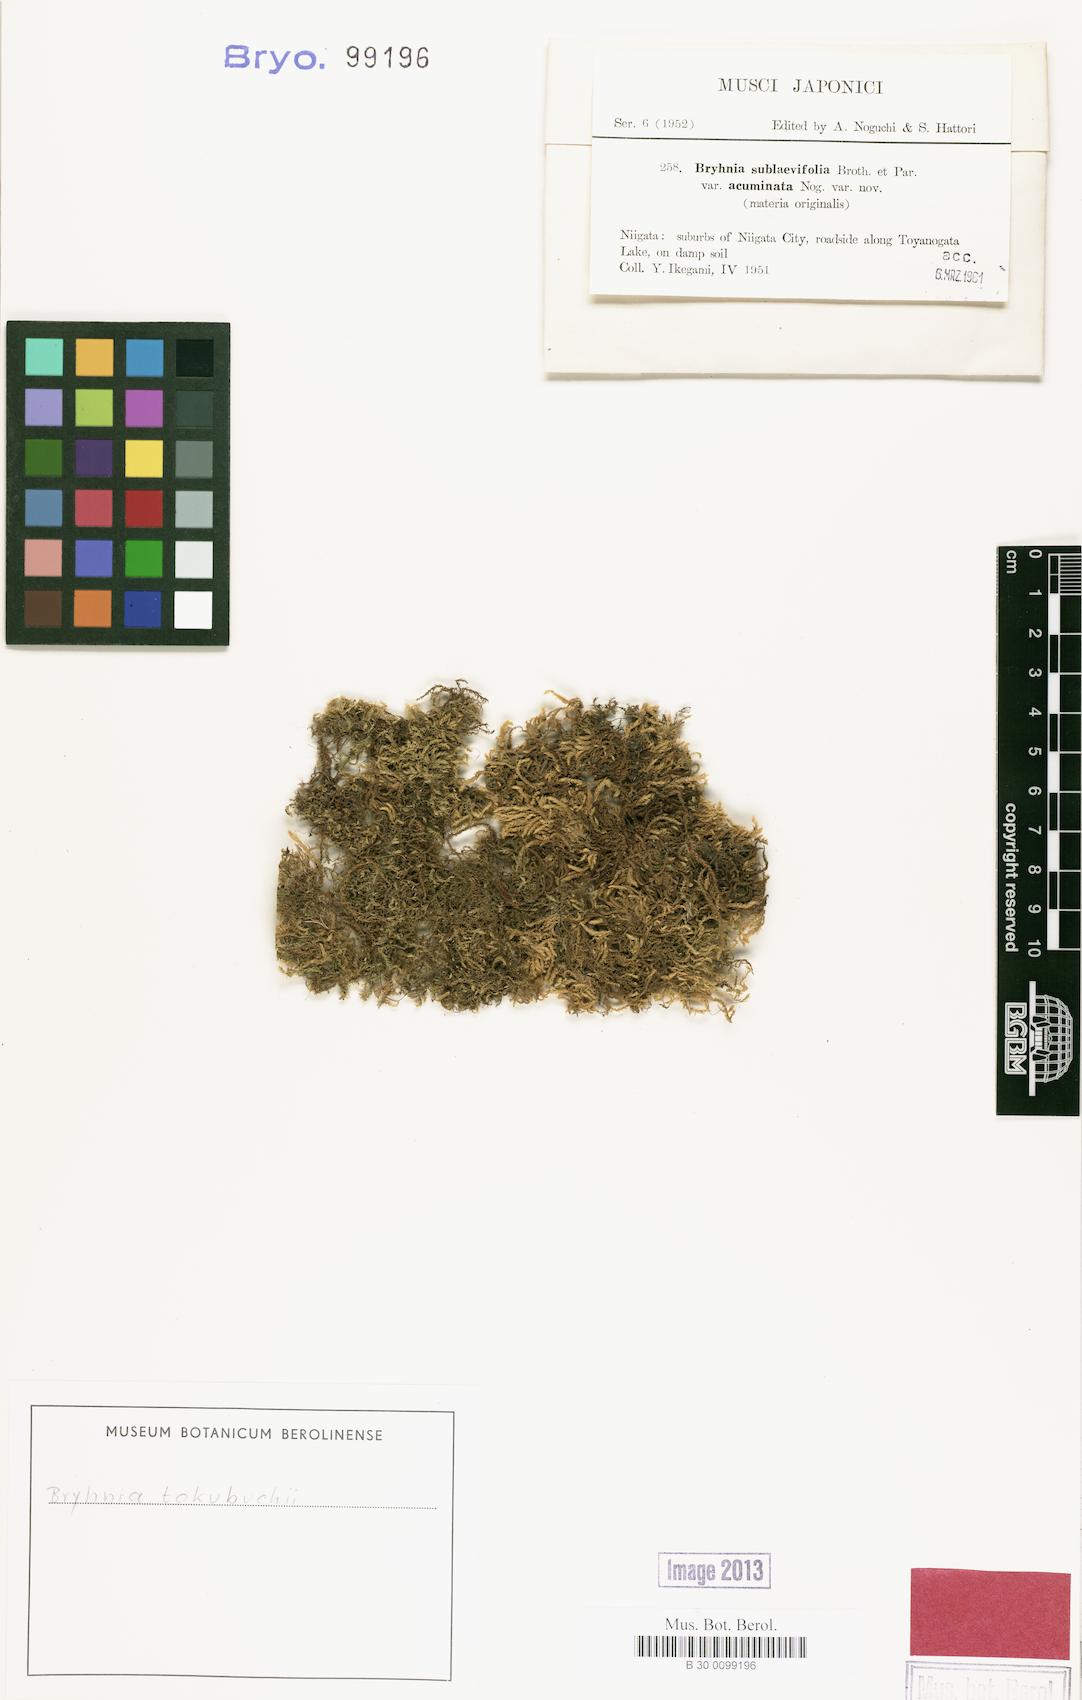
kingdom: Plantae
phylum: Bryophyta
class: Bryopsida
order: Hypnales
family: Brachytheciaceae
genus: Brachythecium
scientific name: Brachythecium noesicum
